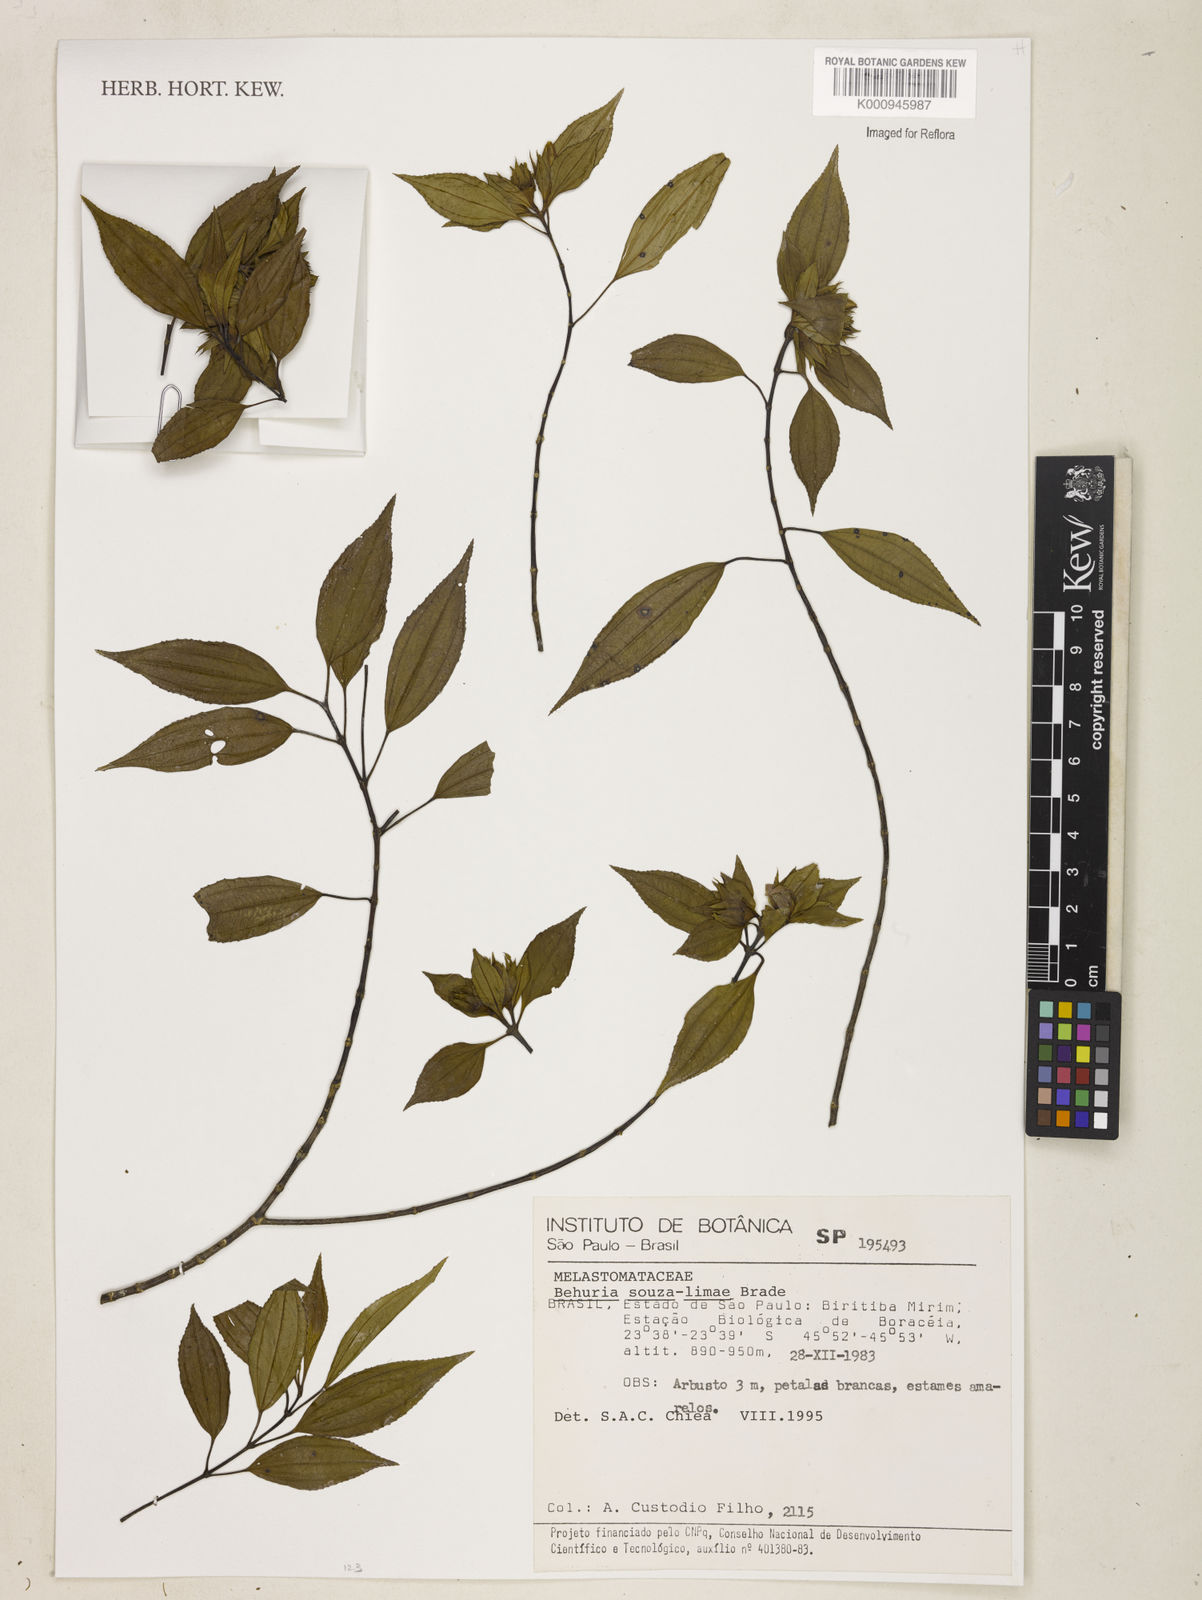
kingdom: Plantae
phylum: Tracheophyta
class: Magnoliopsida
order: Myrtales
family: Melastomataceae
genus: Huberia
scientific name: Huberia souza-limae
